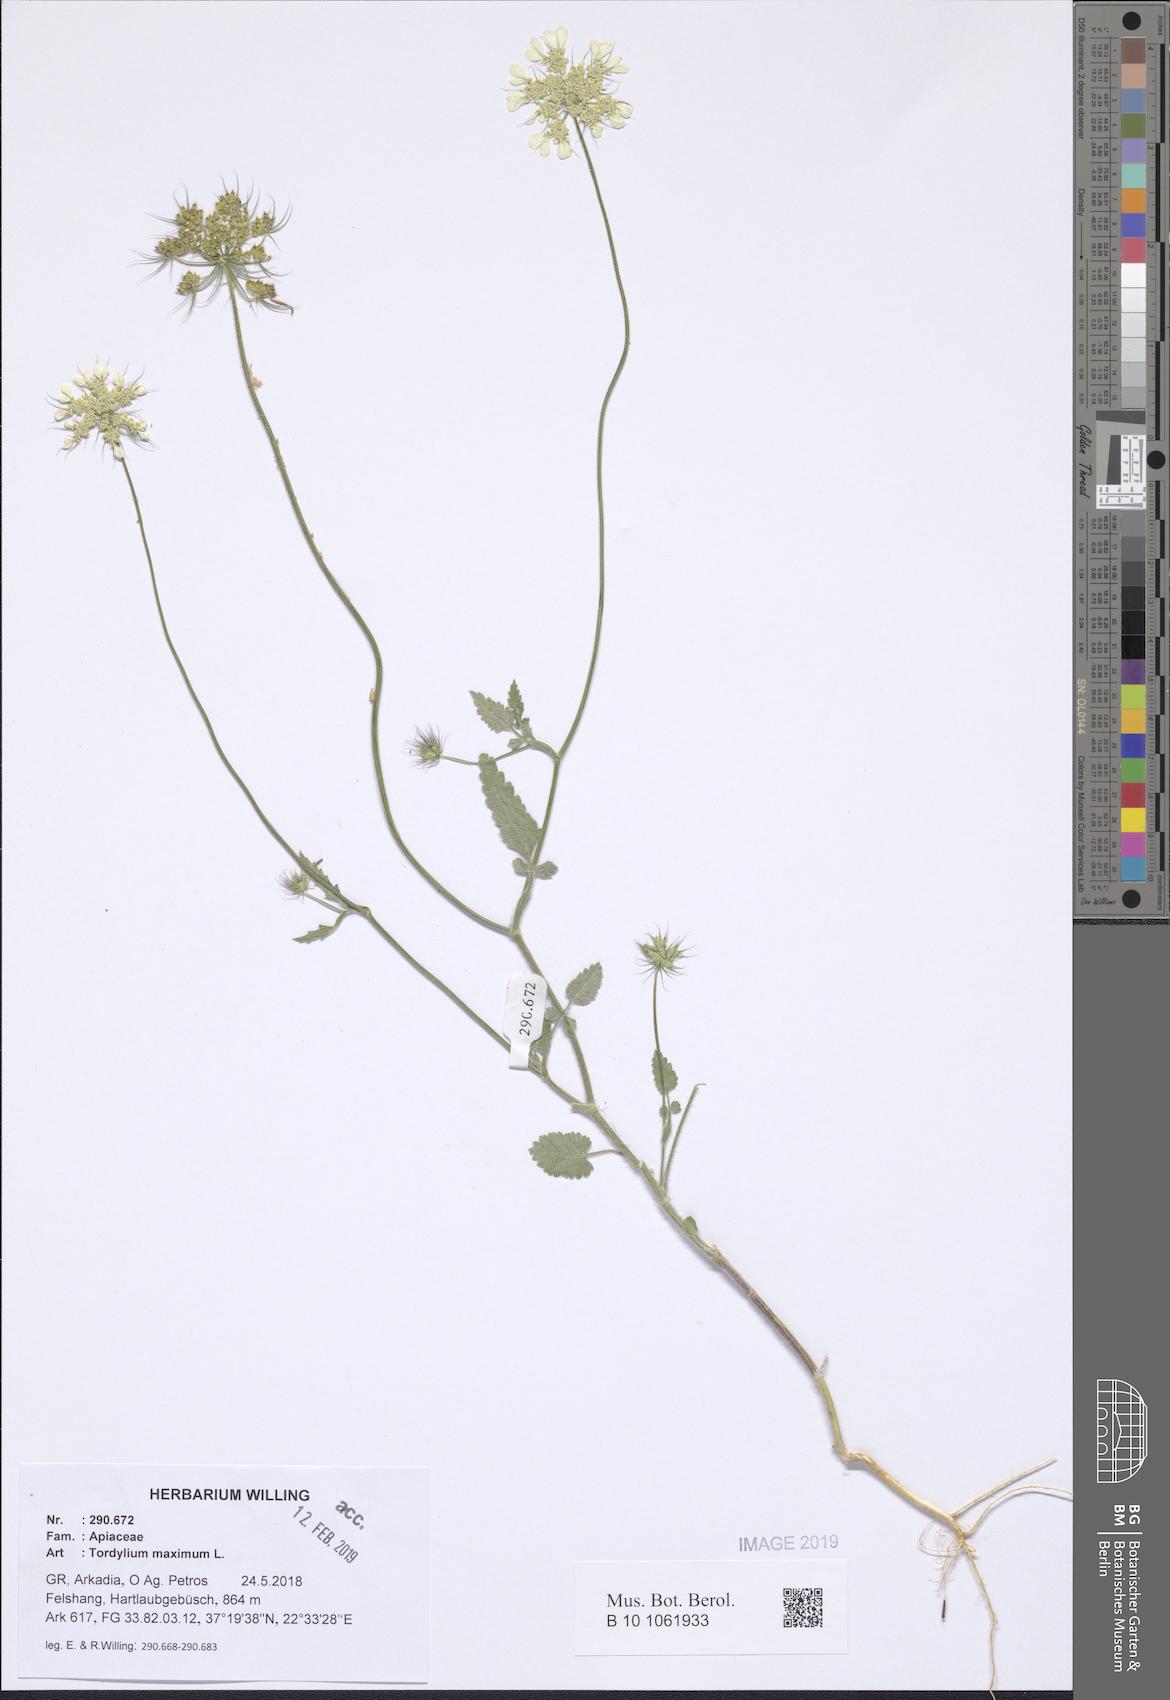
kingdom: Plantae
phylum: Tracheophyta
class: Magnoliopsida
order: Apiales
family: Apiaceae
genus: Tordylium
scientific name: Tordylium maximum
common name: Hartwort
